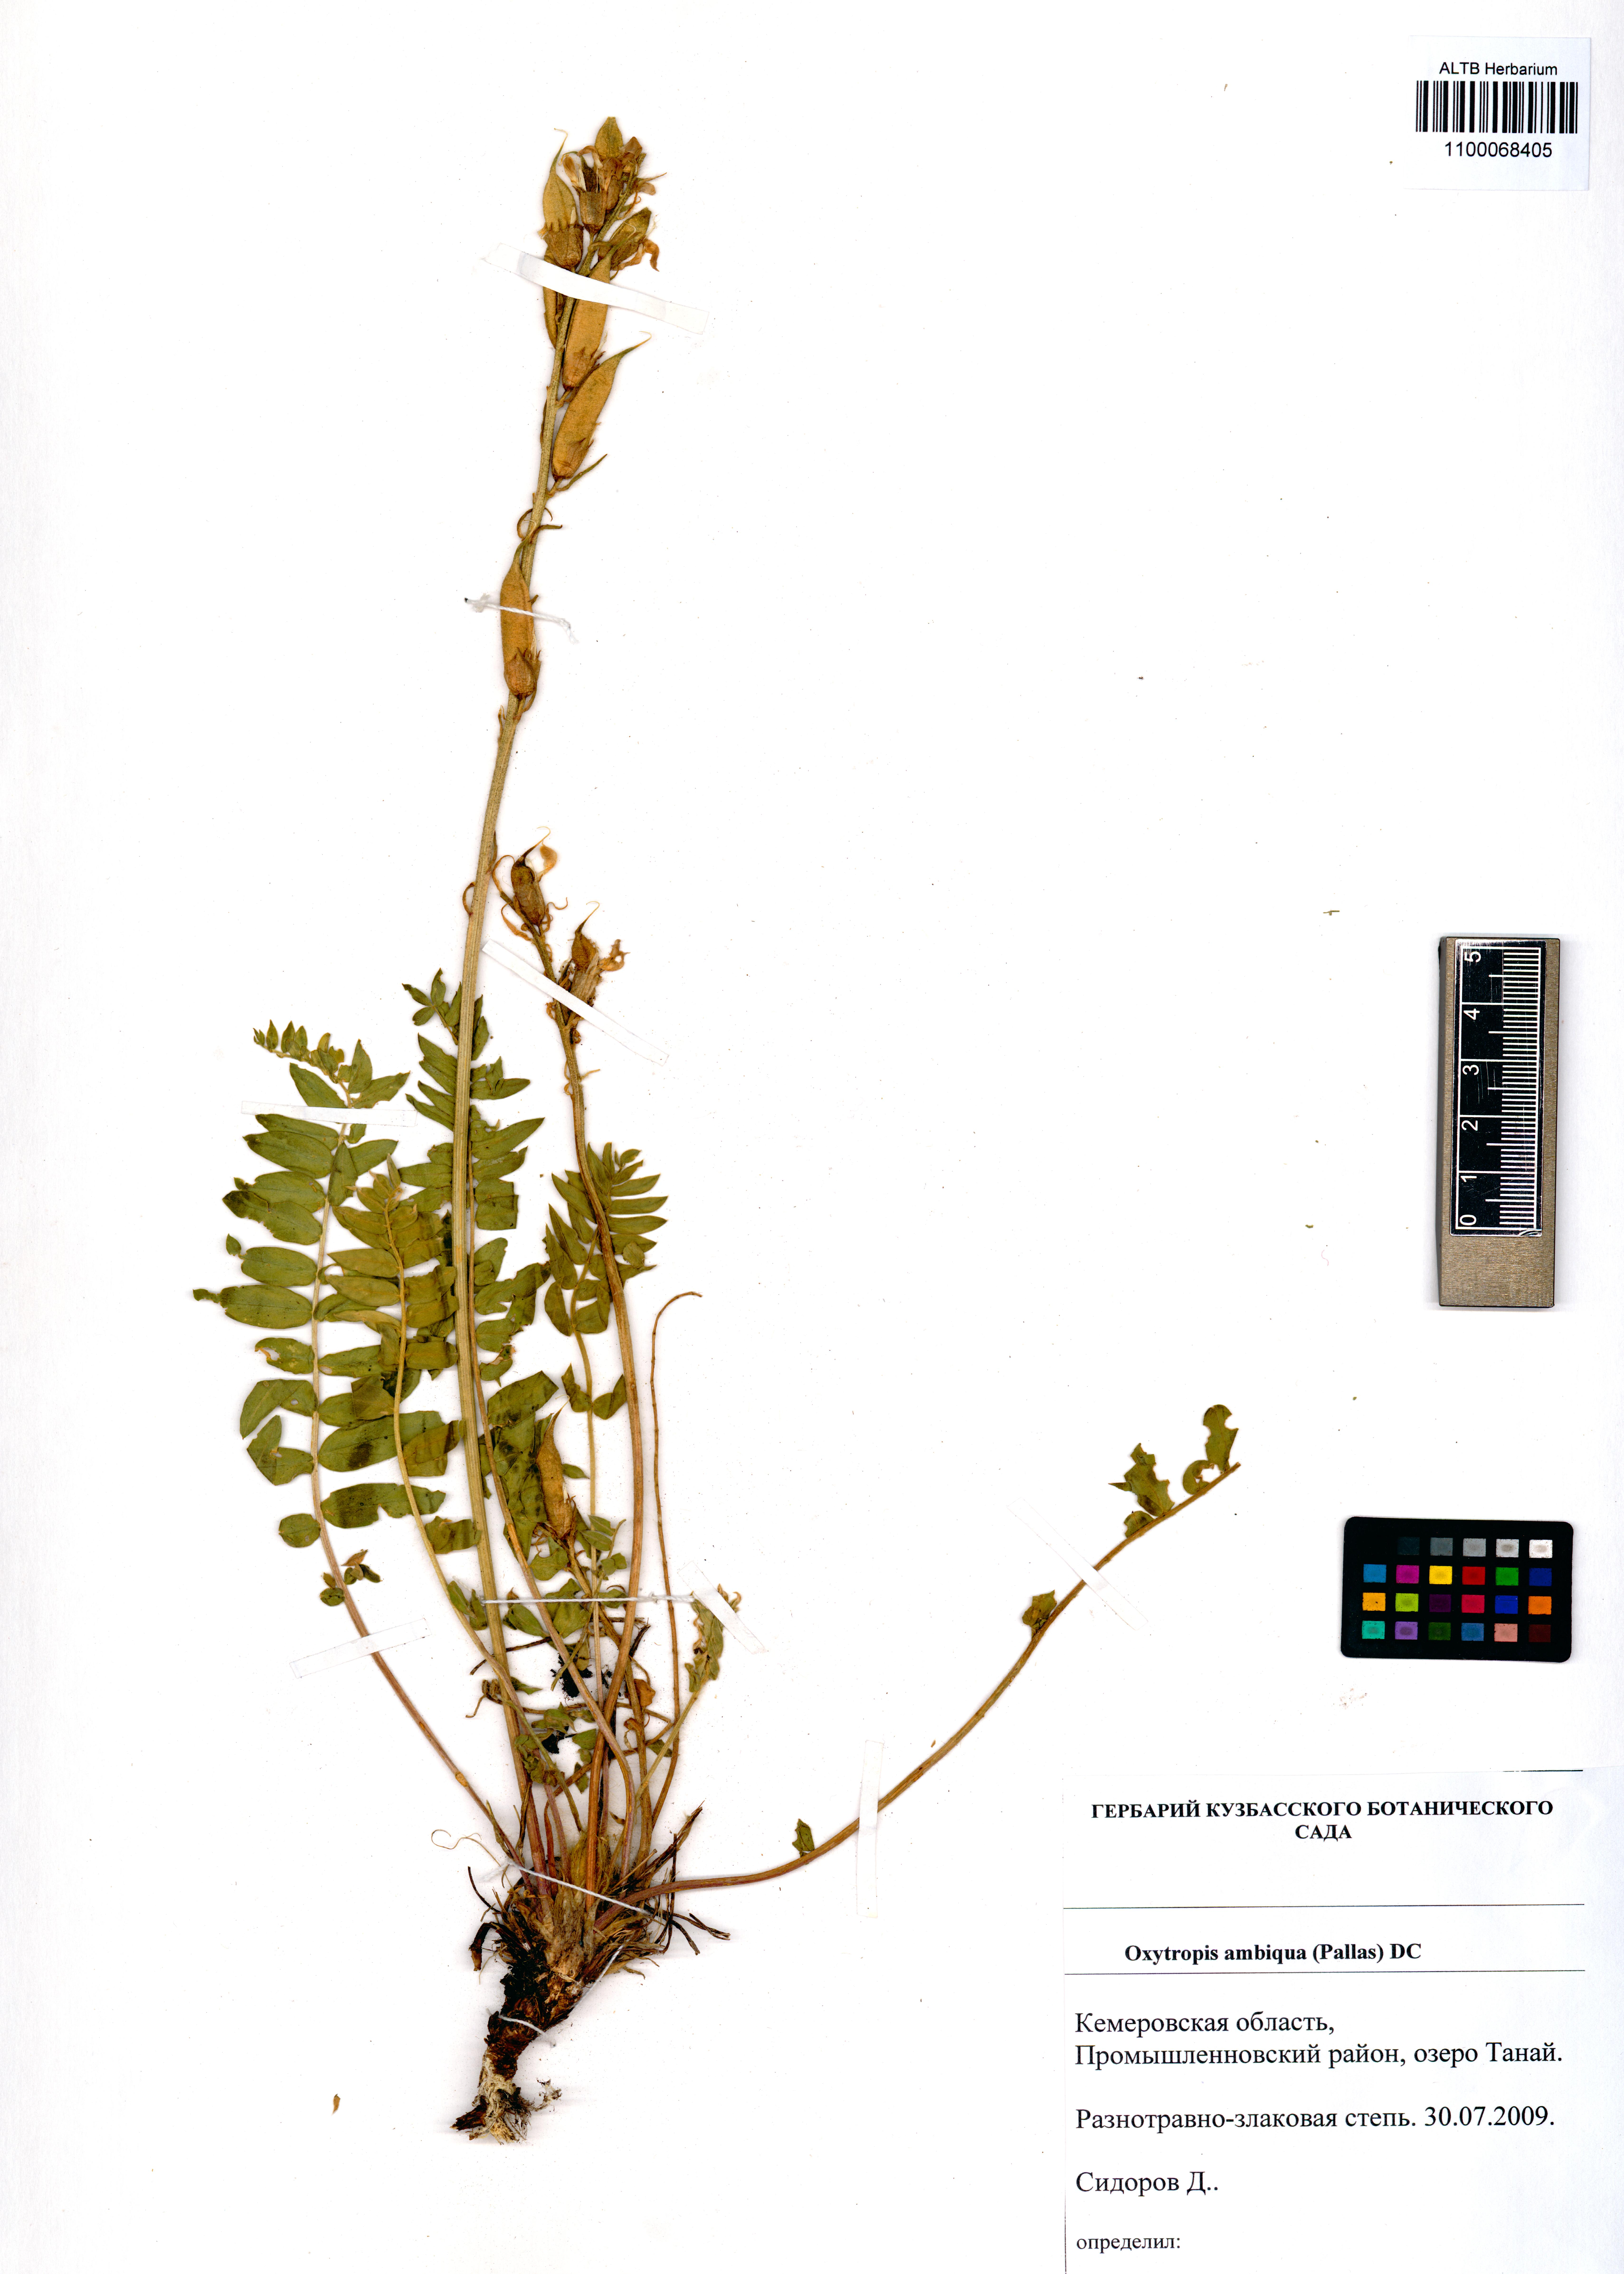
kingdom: Plantae
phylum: Tracheophyta
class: Magnoliopsida
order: Fabales
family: Fabaceae
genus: Oxytropis
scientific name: Oxytropis ambigua
